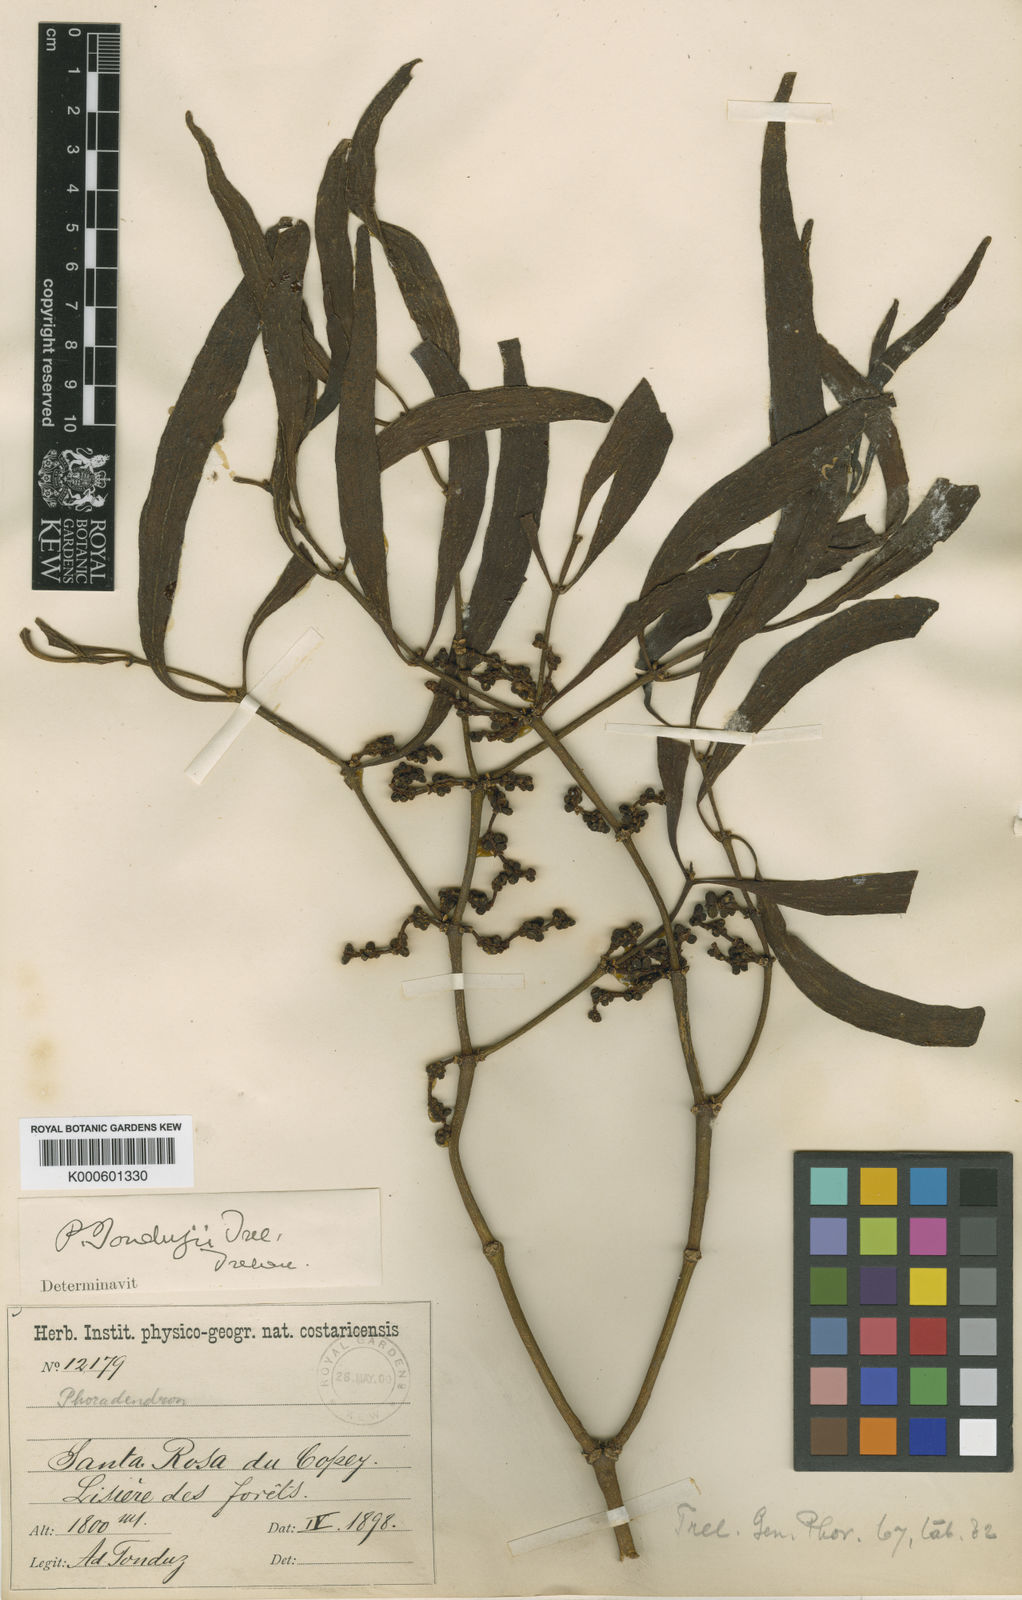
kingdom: Plantae
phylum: Tracheophyta
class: Magnoliopsida
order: Santalales
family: Viscaceae
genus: Phoradendron
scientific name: Phoradendron tonduzii
